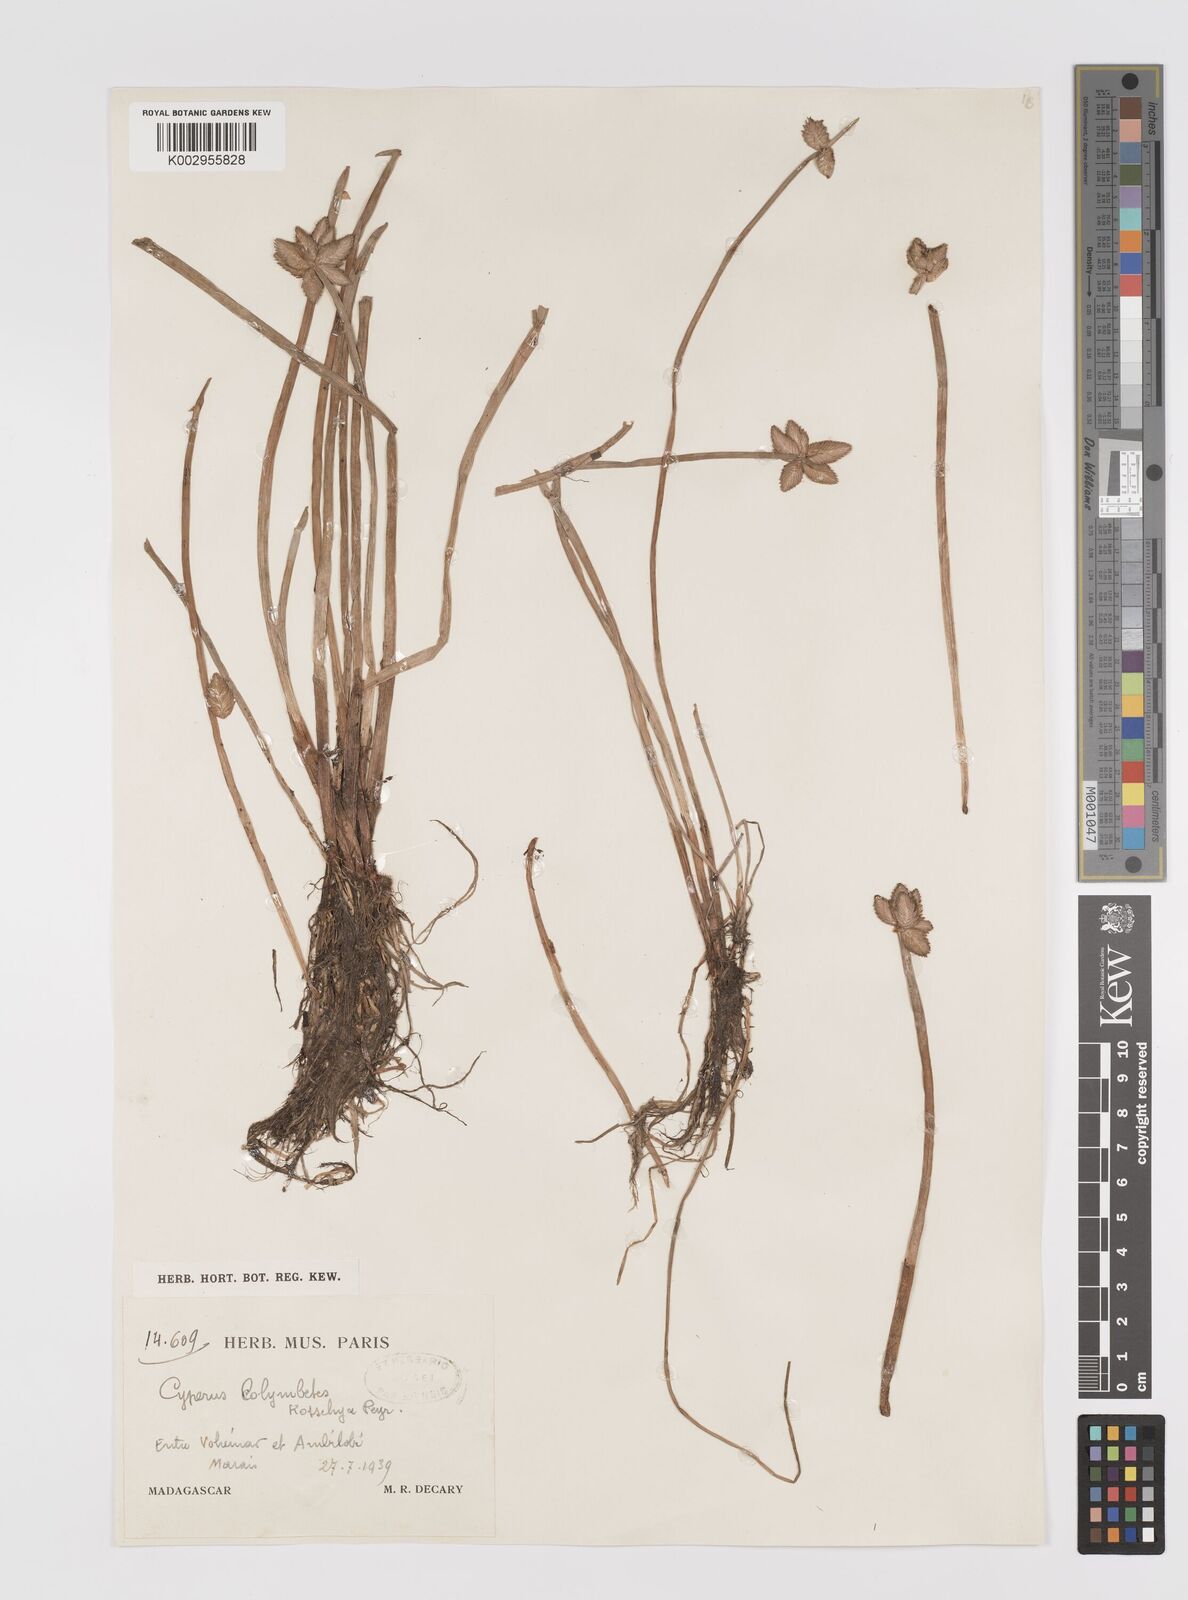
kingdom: Plantae
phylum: Tracheophyta
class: Liliopsida
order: Poales
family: Cyperaceae
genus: Cyperus
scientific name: Cyperus colymbetes
